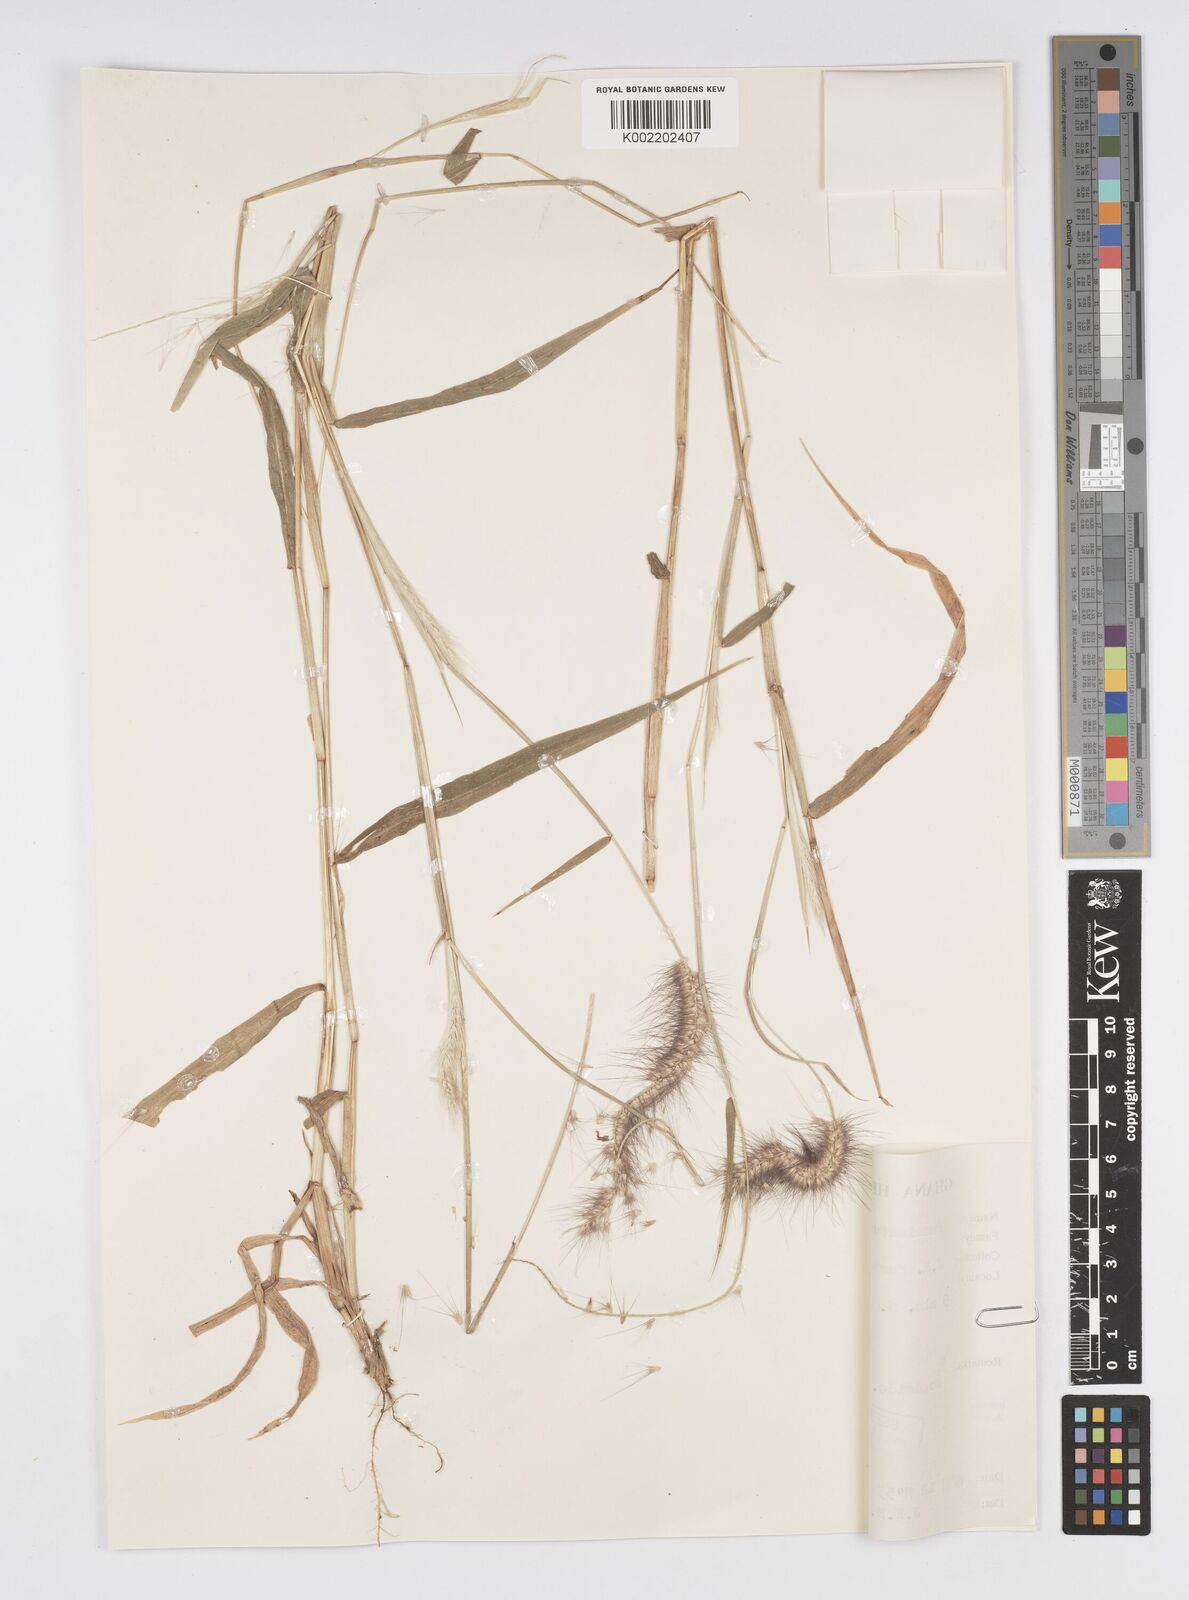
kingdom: Plantae
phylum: Tracheophyta
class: Liliopsida
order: Poales
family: Poaceae
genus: Setaria
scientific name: Setaria parviflora
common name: Knotroot bristle-grass
